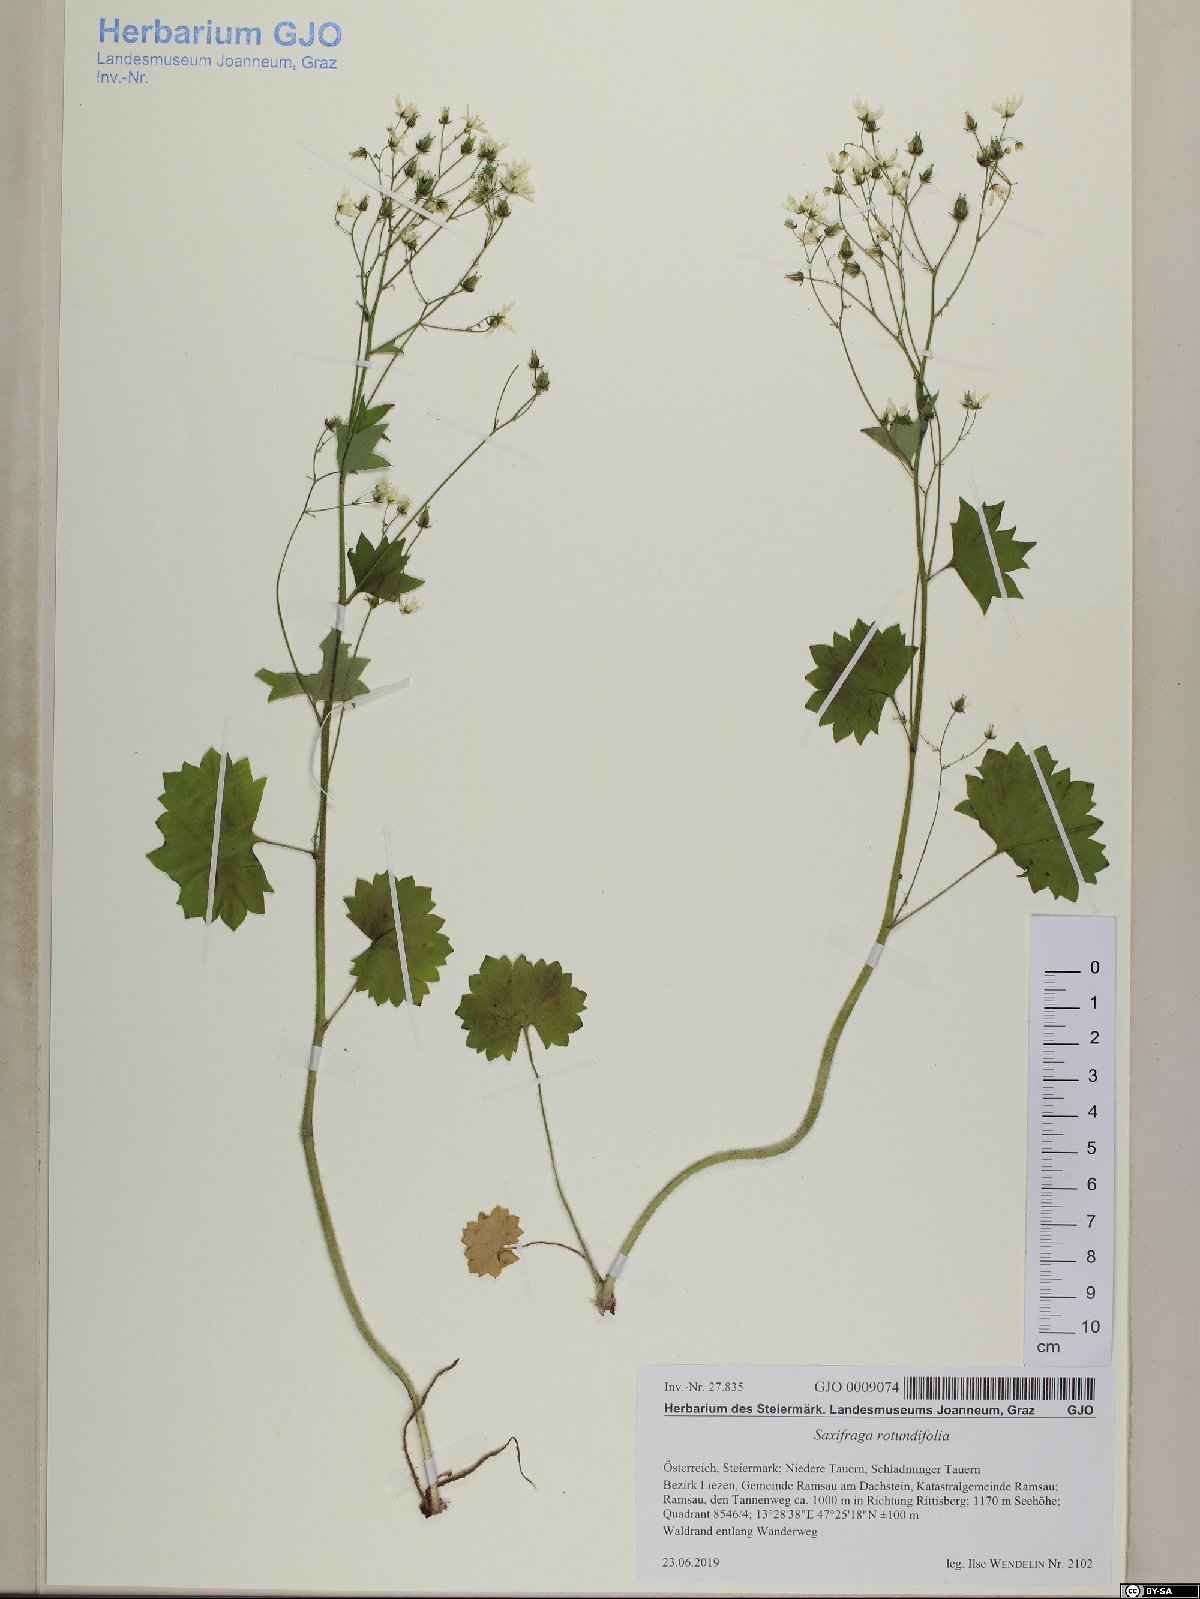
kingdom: Plantae
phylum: Tracheophyta
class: Liliopsida
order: Poales
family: Poaceae
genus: Phleum
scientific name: Phleum alpinum
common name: Alpine cat's-tail
